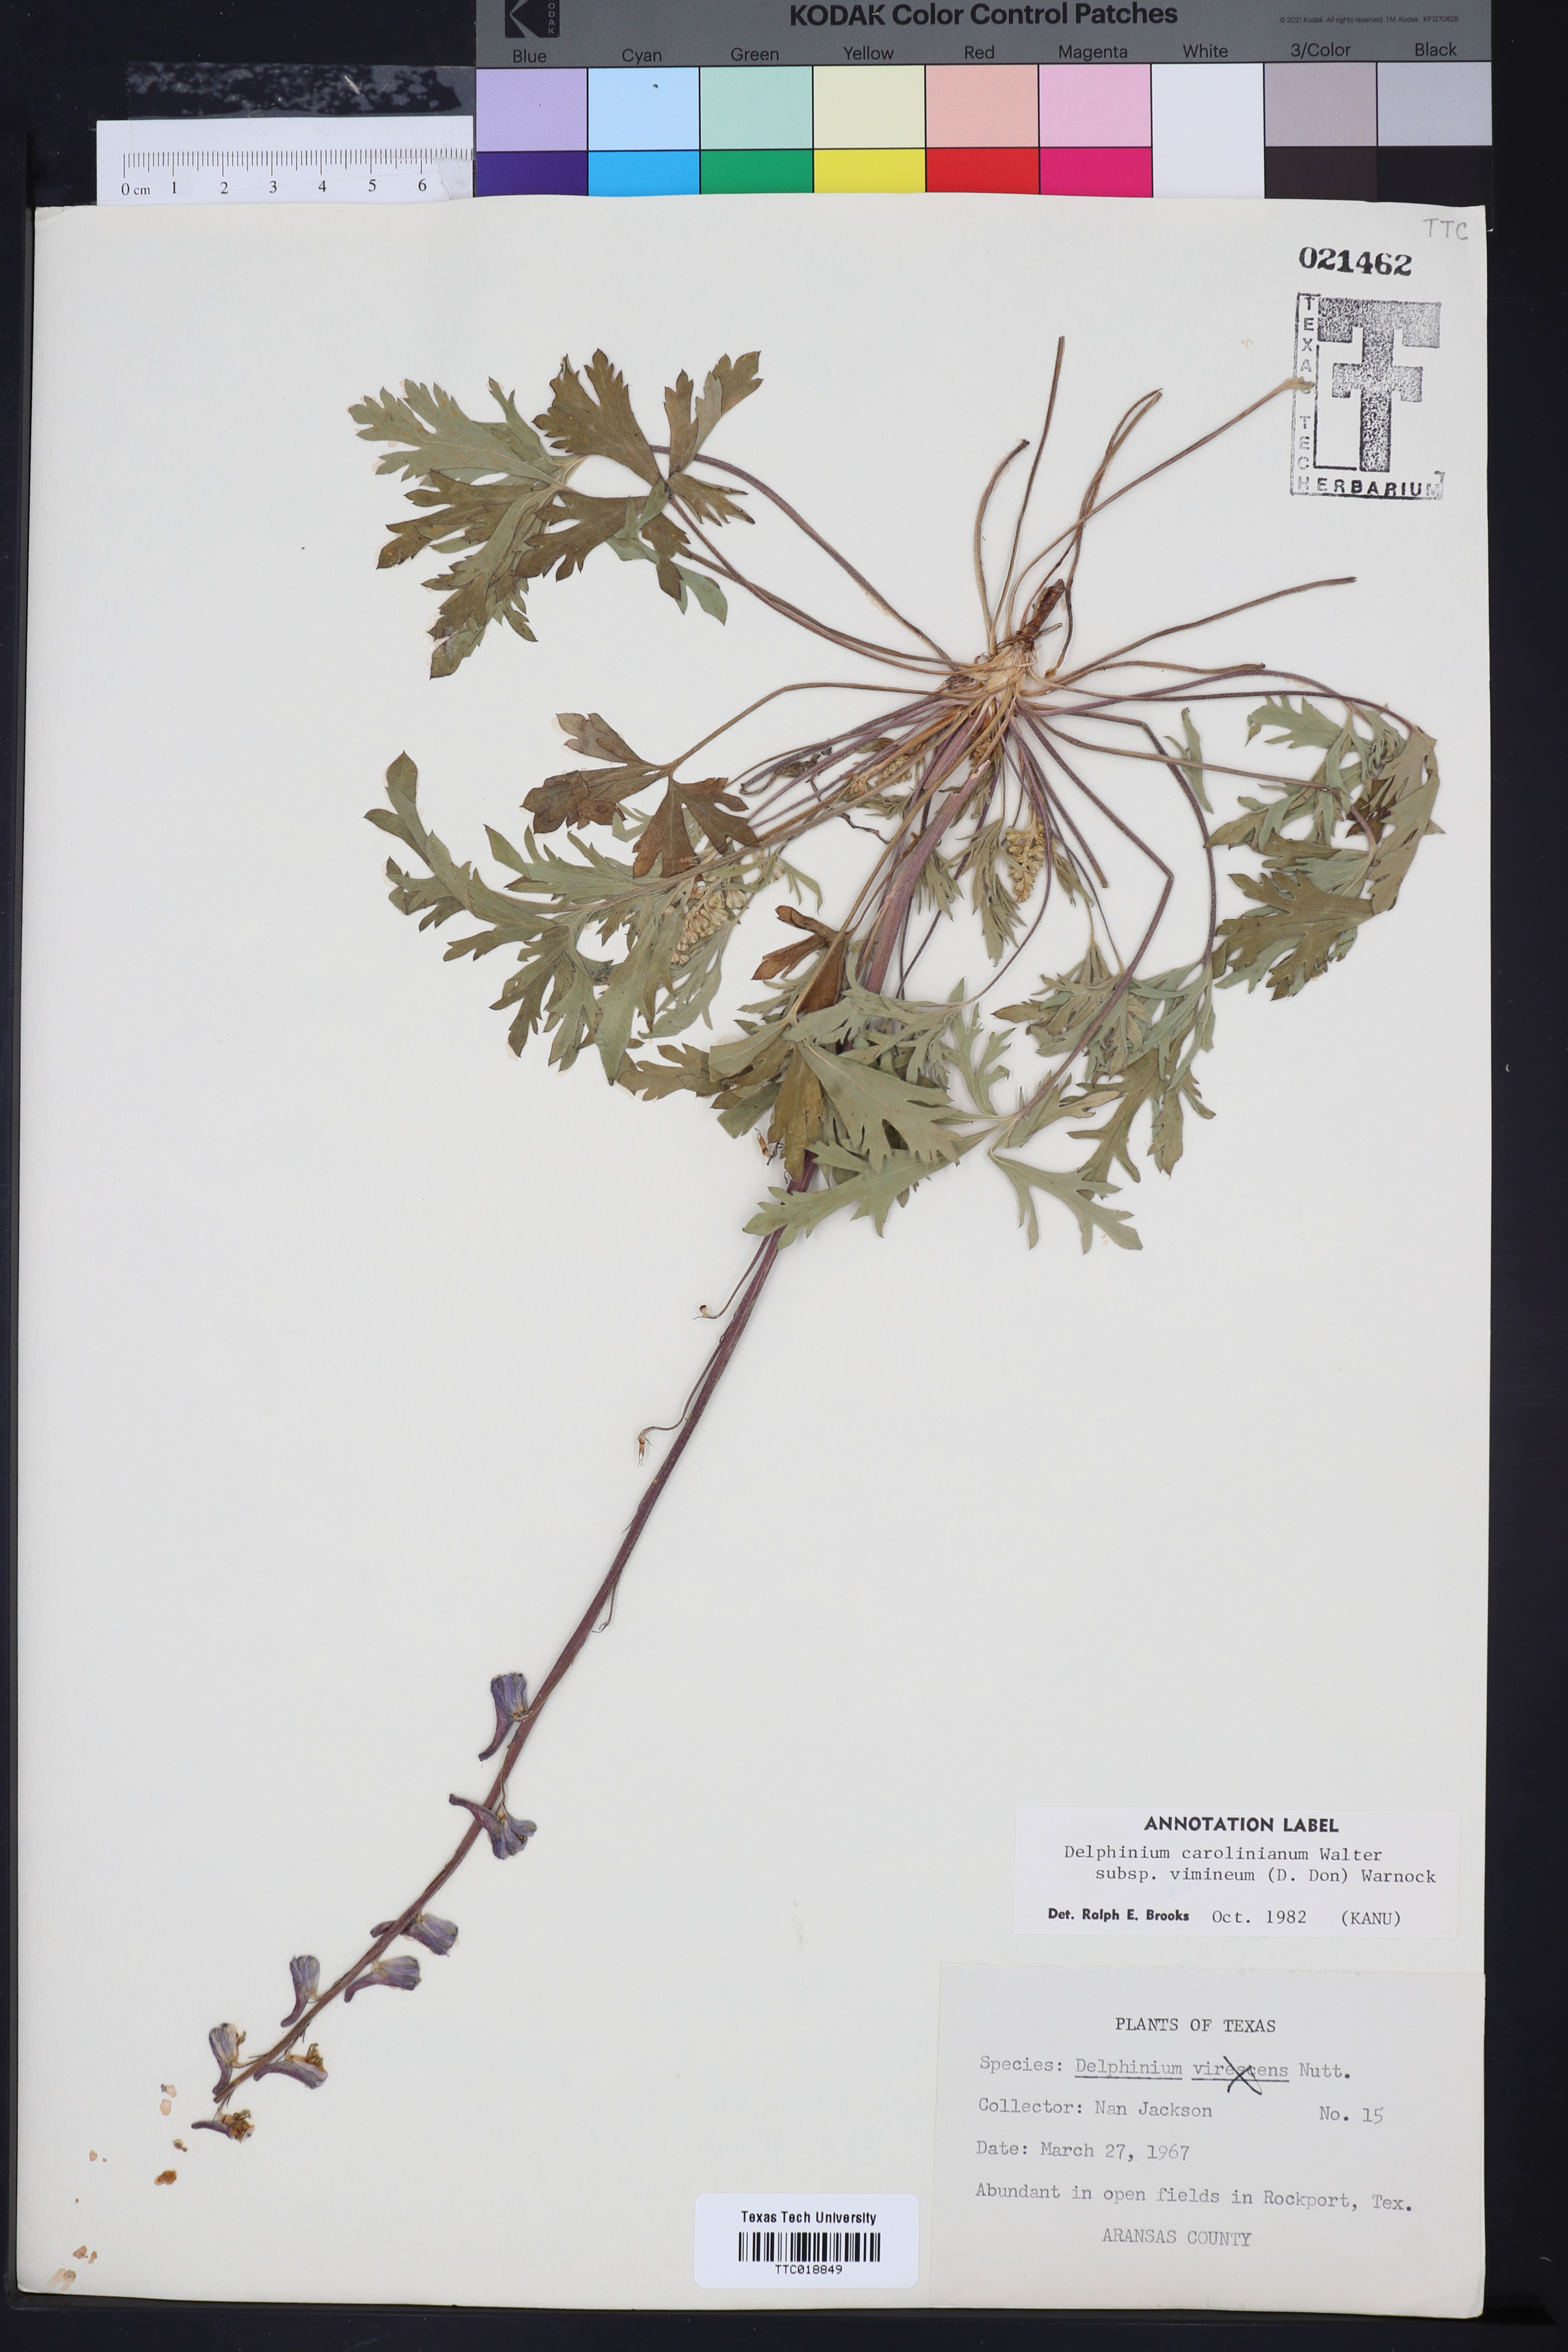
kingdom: Plantae
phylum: Tracheophyta
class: Magnoliopsida
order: Ranunculales
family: Ranunculaceae
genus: Delphinium
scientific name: Delphinium carolinianum
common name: Carolina larkspur
